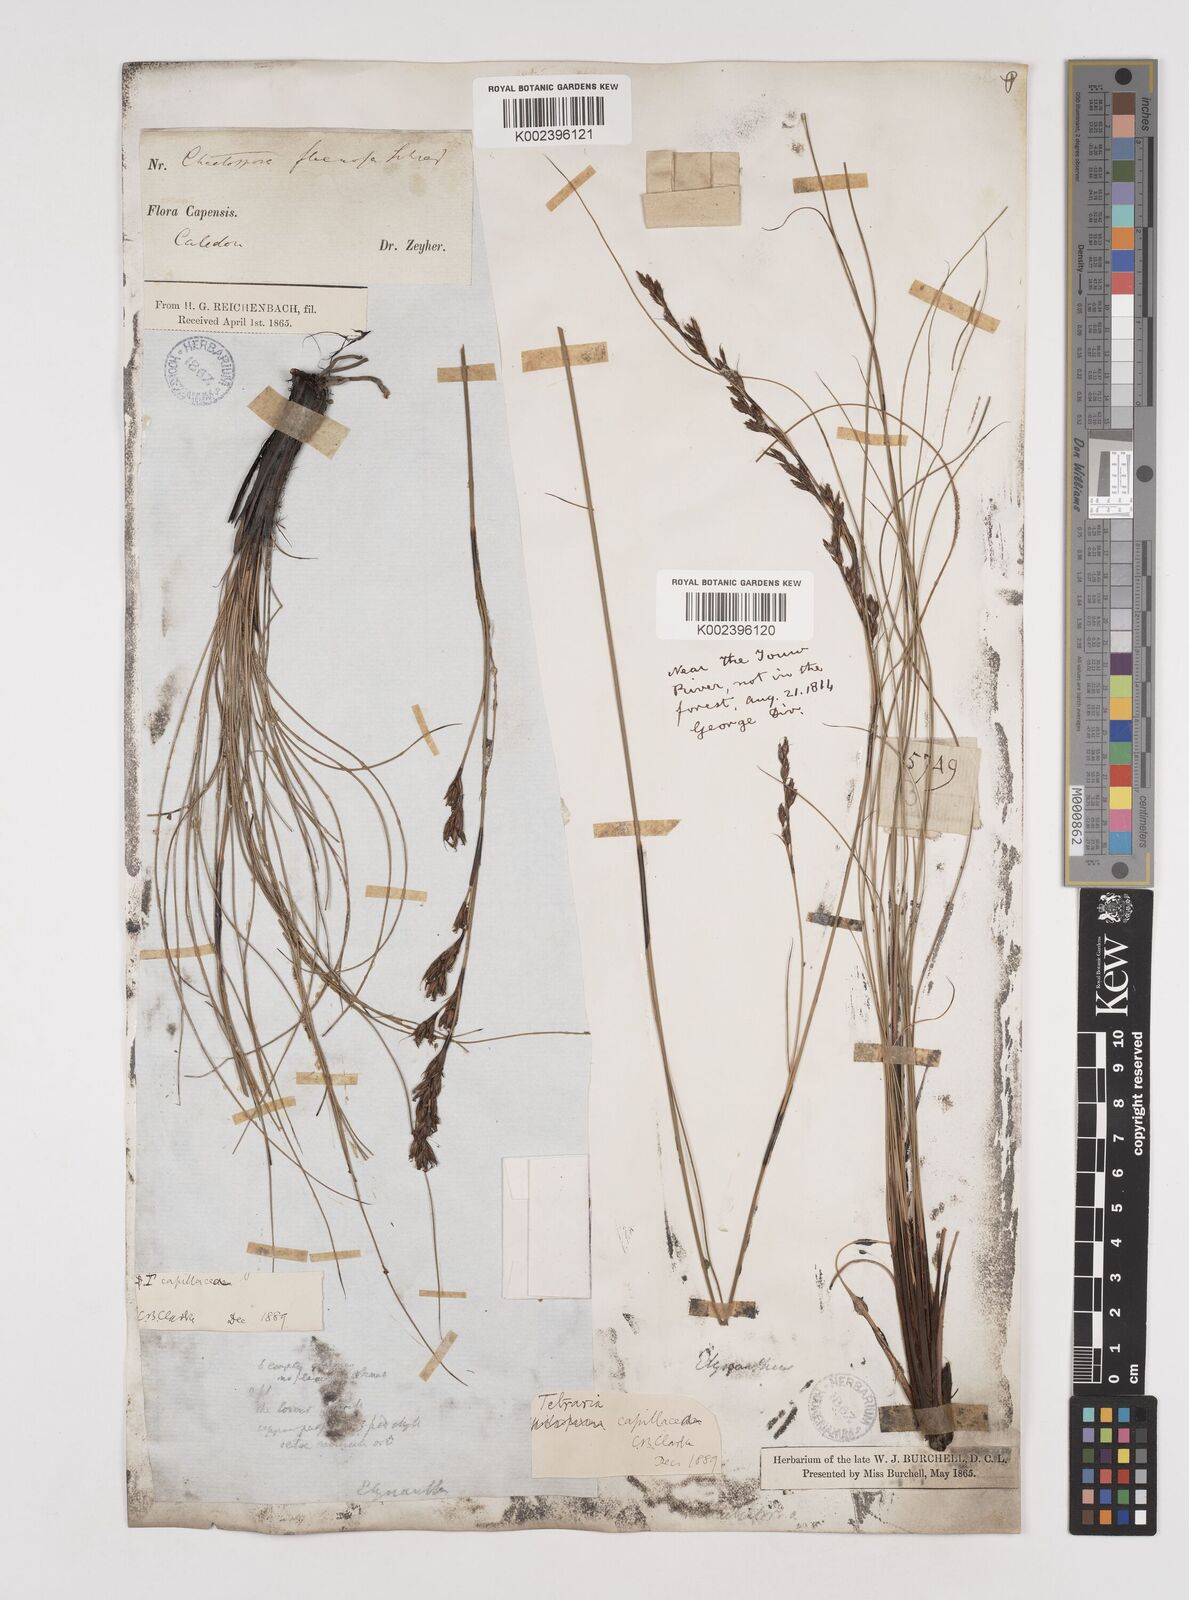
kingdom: Plantae
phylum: Tracheophyta
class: Liliopsida
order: Poales
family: Cyperaceae
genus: Tetraria
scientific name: Tetraria capillacea
